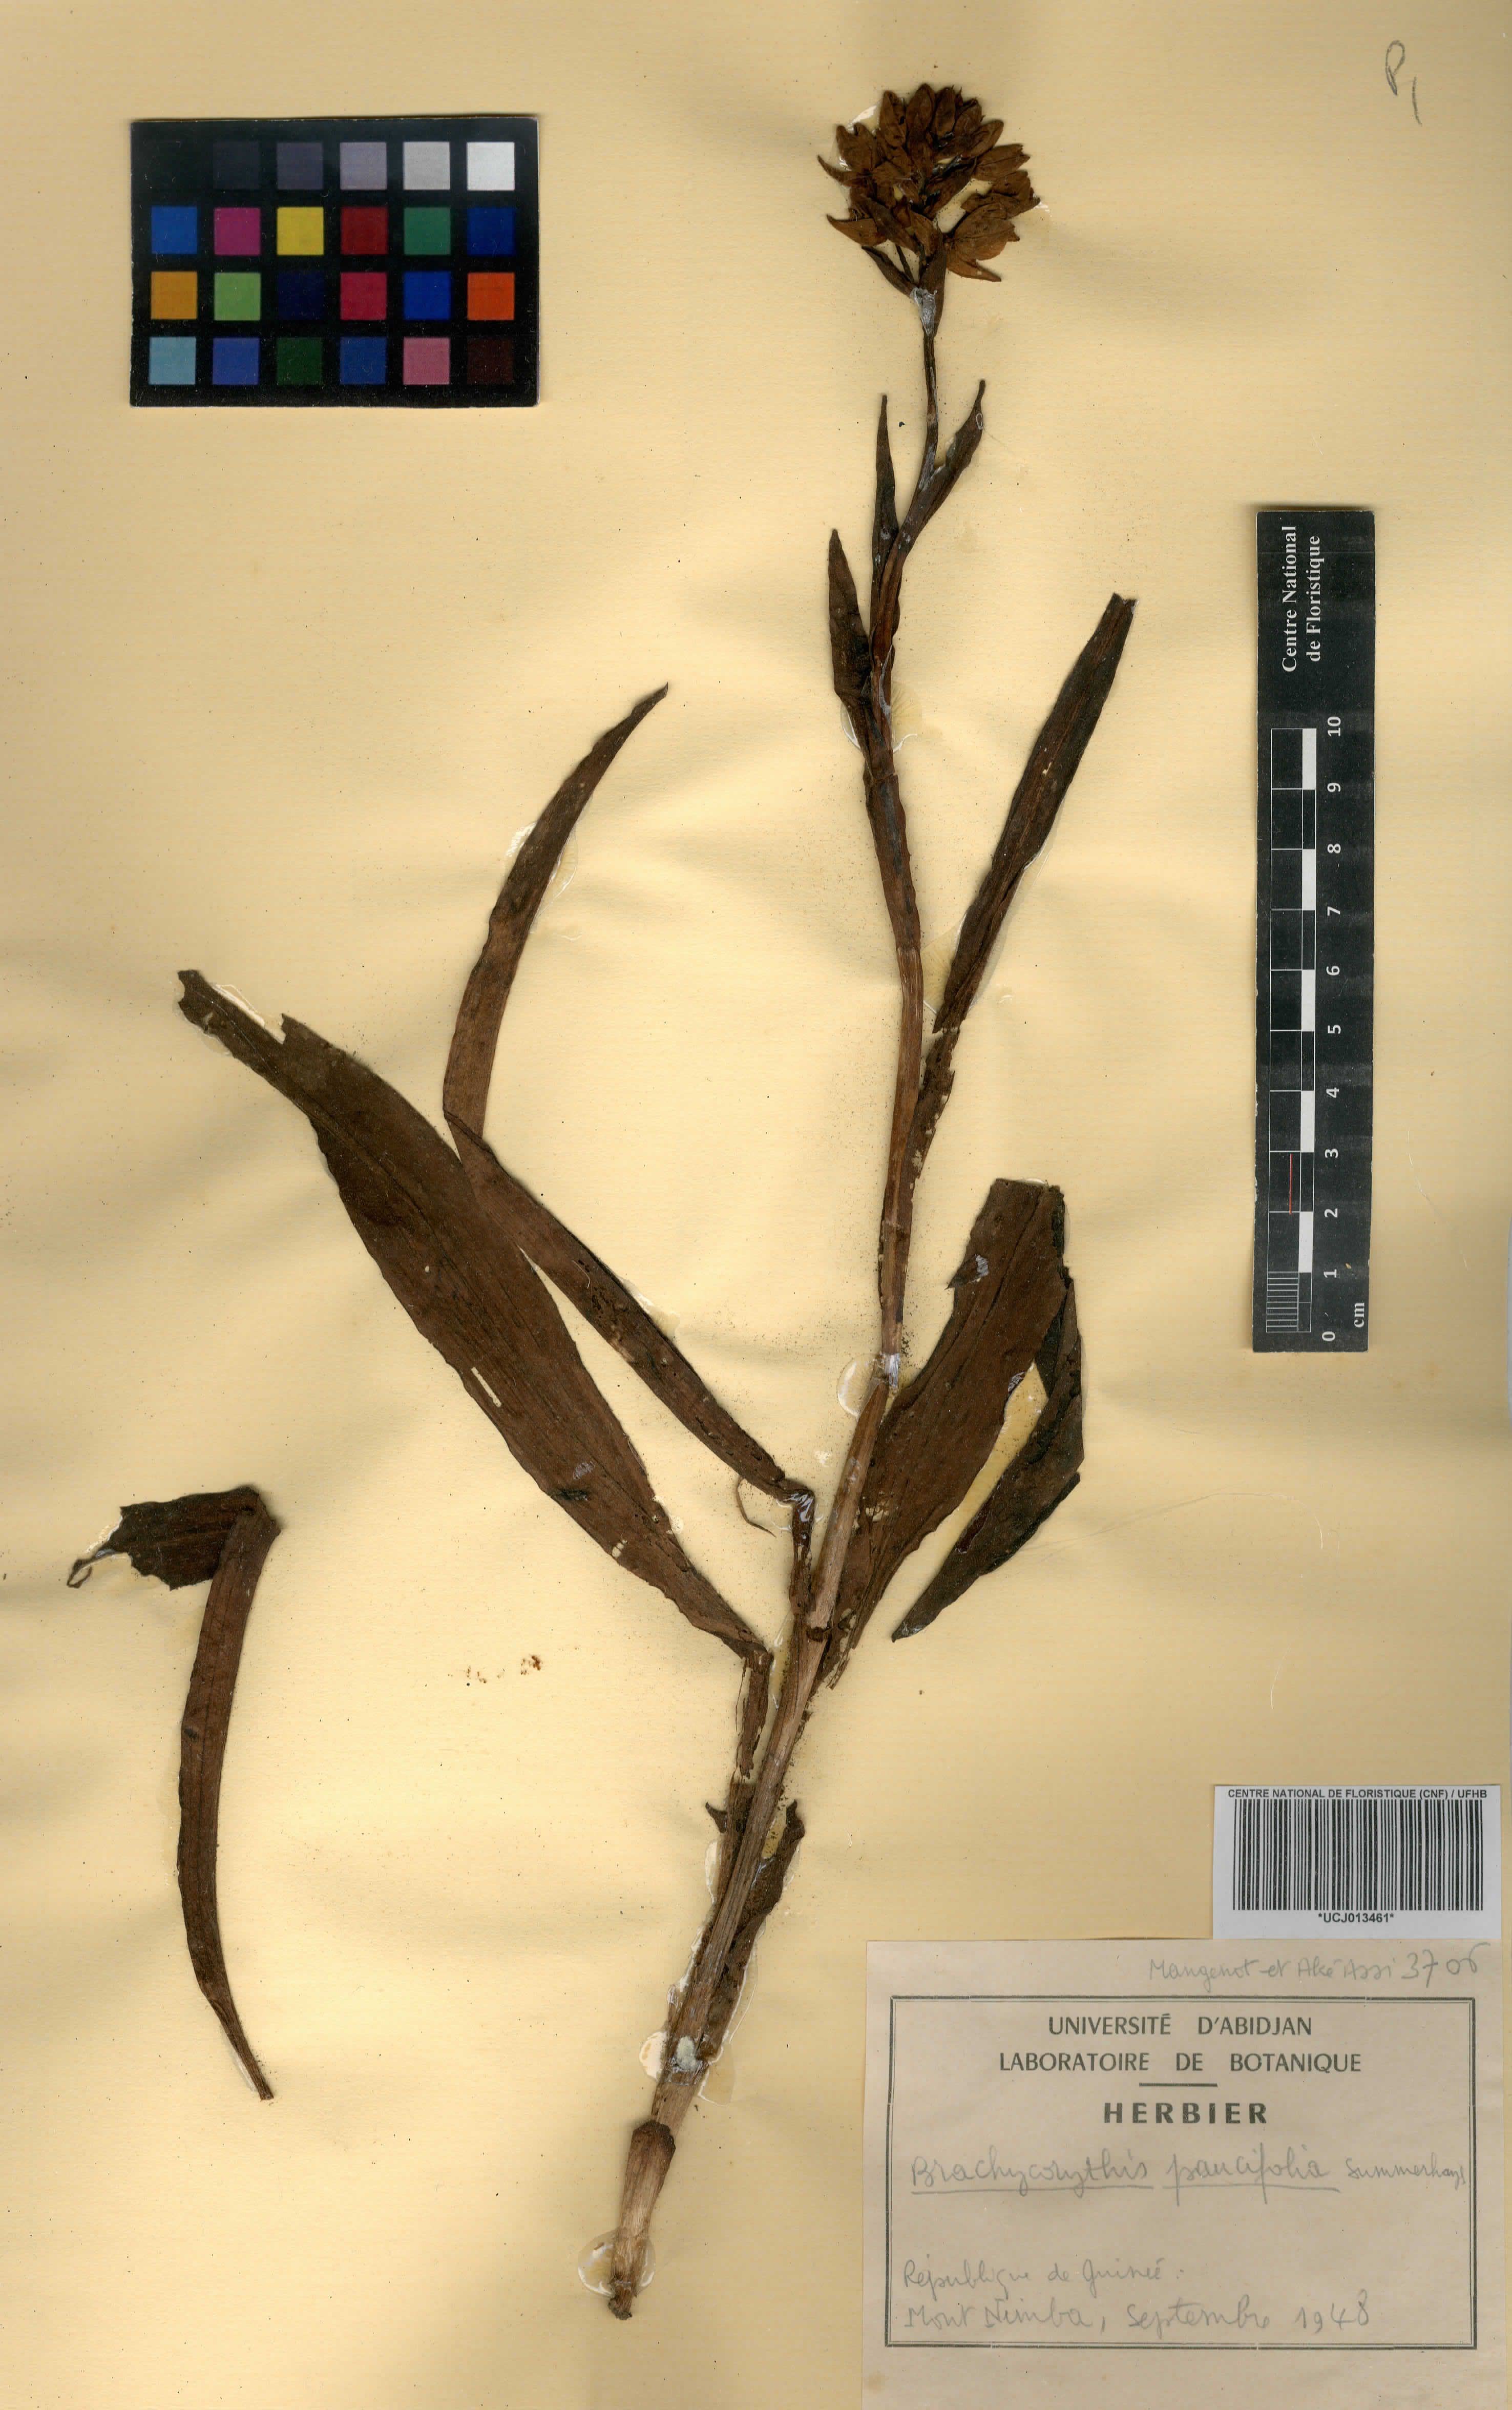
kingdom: Plantae
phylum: Tracheophyta
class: Liliopsida
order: Asparagales
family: Orchidaceae
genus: Brachycorythis
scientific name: Brachycorythis paucifolia
